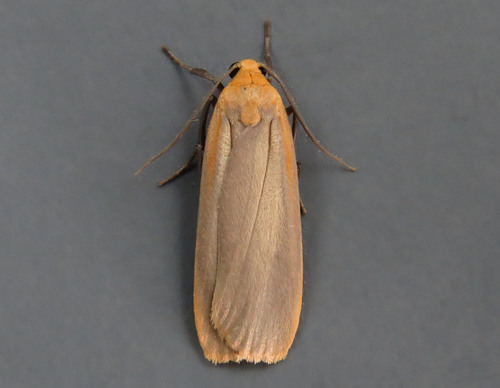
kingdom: Animalia
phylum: Arthropoda
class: Insecta
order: Lepidoptera
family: Erebidae
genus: Katha
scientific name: Katha depressa
